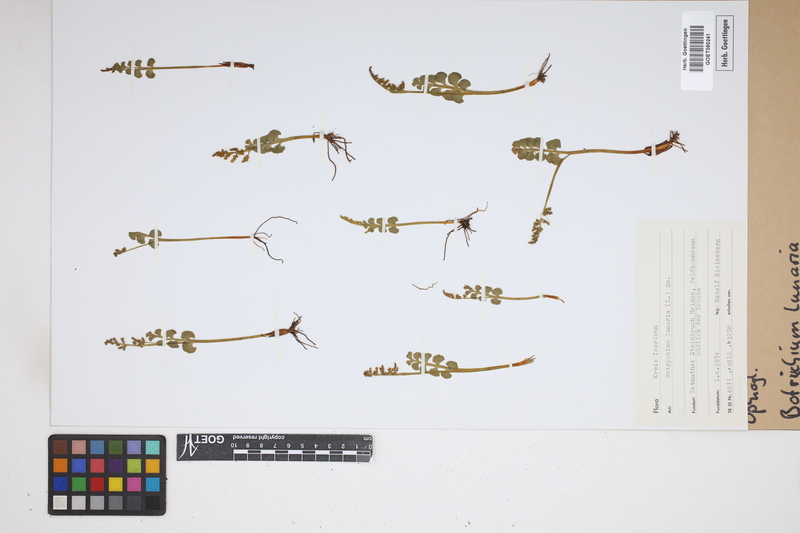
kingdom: Plantae
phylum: Tracheophyta
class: Polypodiopsida
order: Ophioglossales
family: Ophioglossaceae
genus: Botrychium
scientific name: Botrychium lunaria
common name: Moonwort
